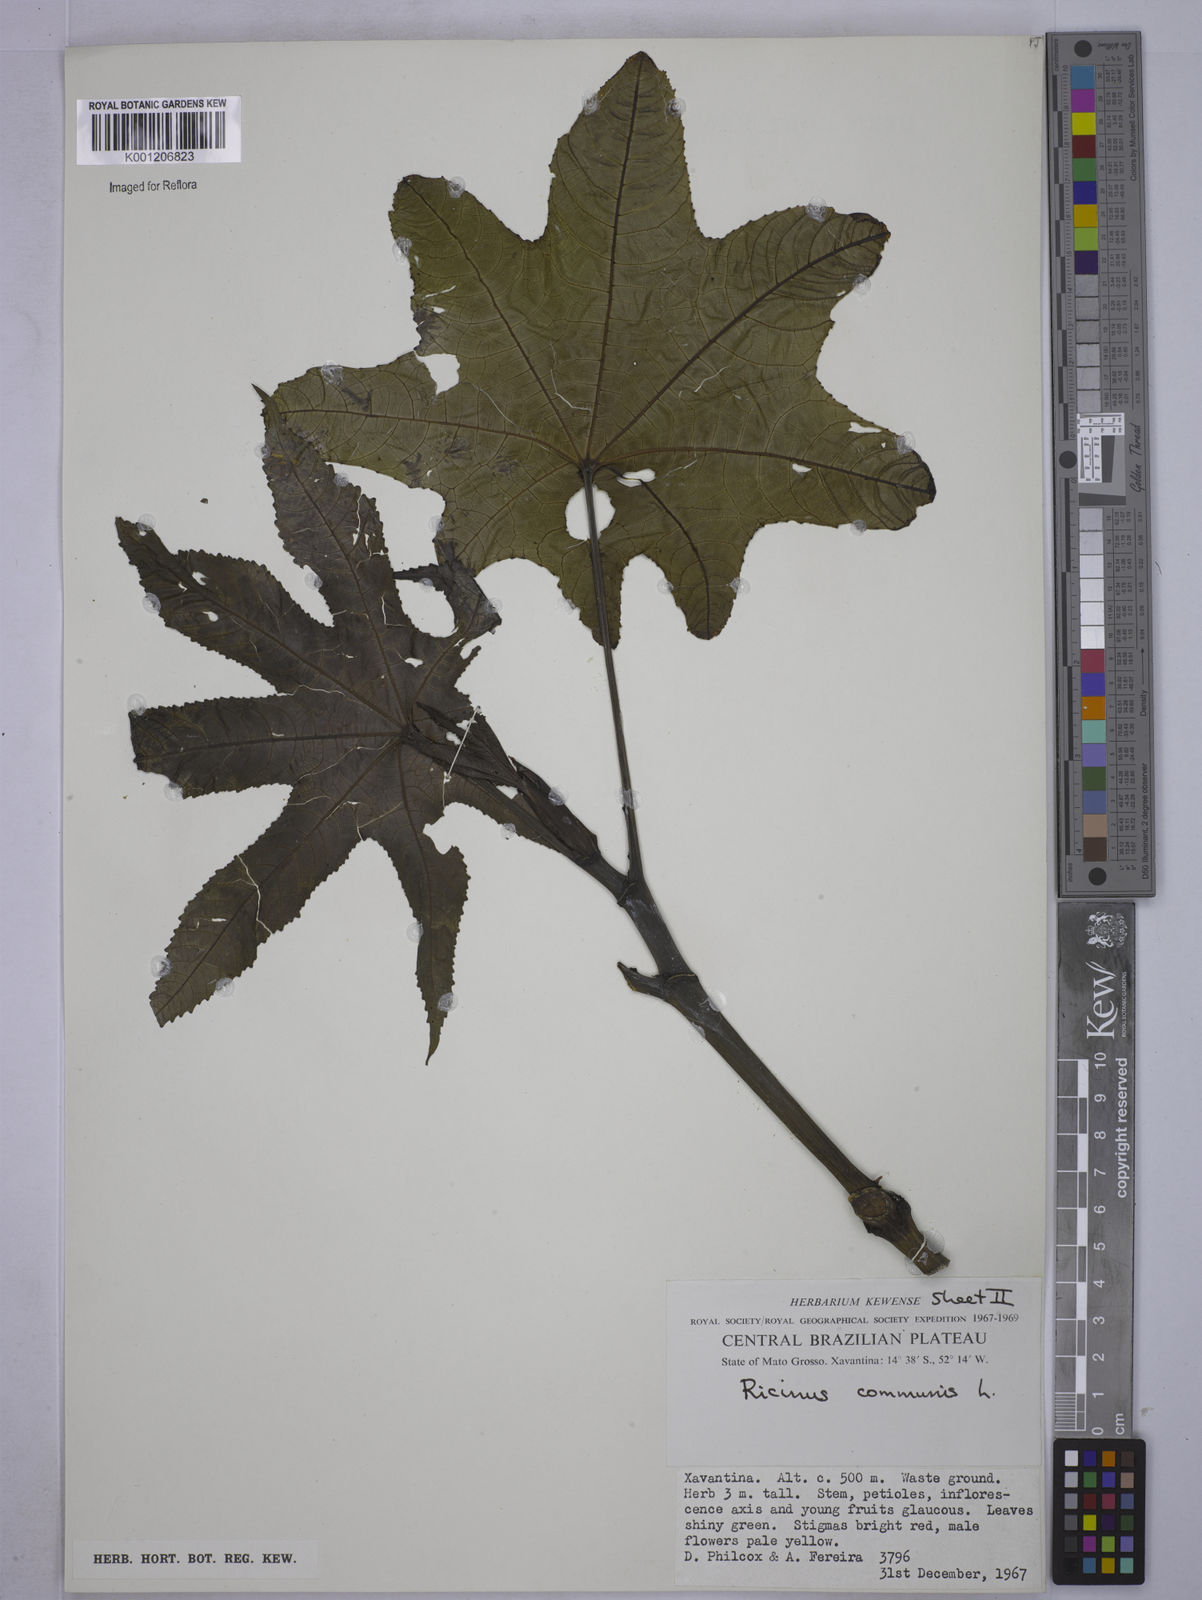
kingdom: Plantae
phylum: Tracheophyta
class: Magnoliopsida
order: Malpighiales
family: Euphorbiaceae
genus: Ricinus
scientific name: Ricinus communis
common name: Castor-oil-plant
